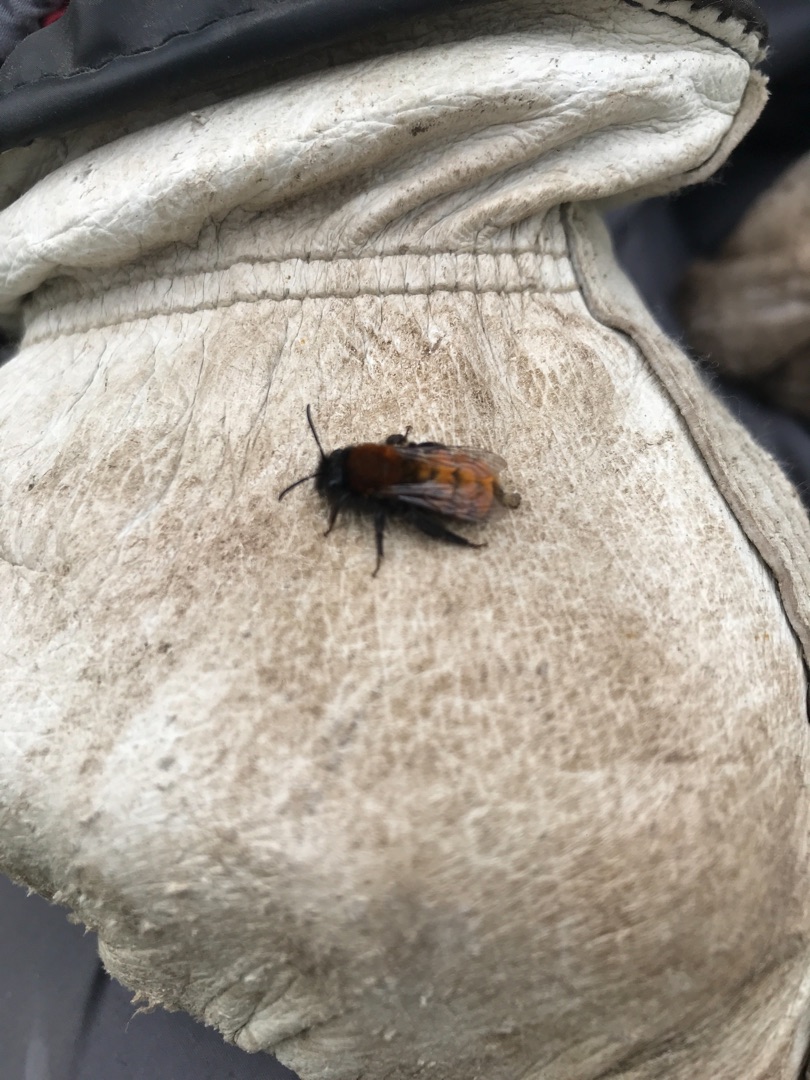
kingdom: Animalia
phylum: Arthropoda
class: Insecta
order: Hymenoptera
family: Andrenidae
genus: Andrena
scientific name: Andrena fulva
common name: Rødpelset jordbi
